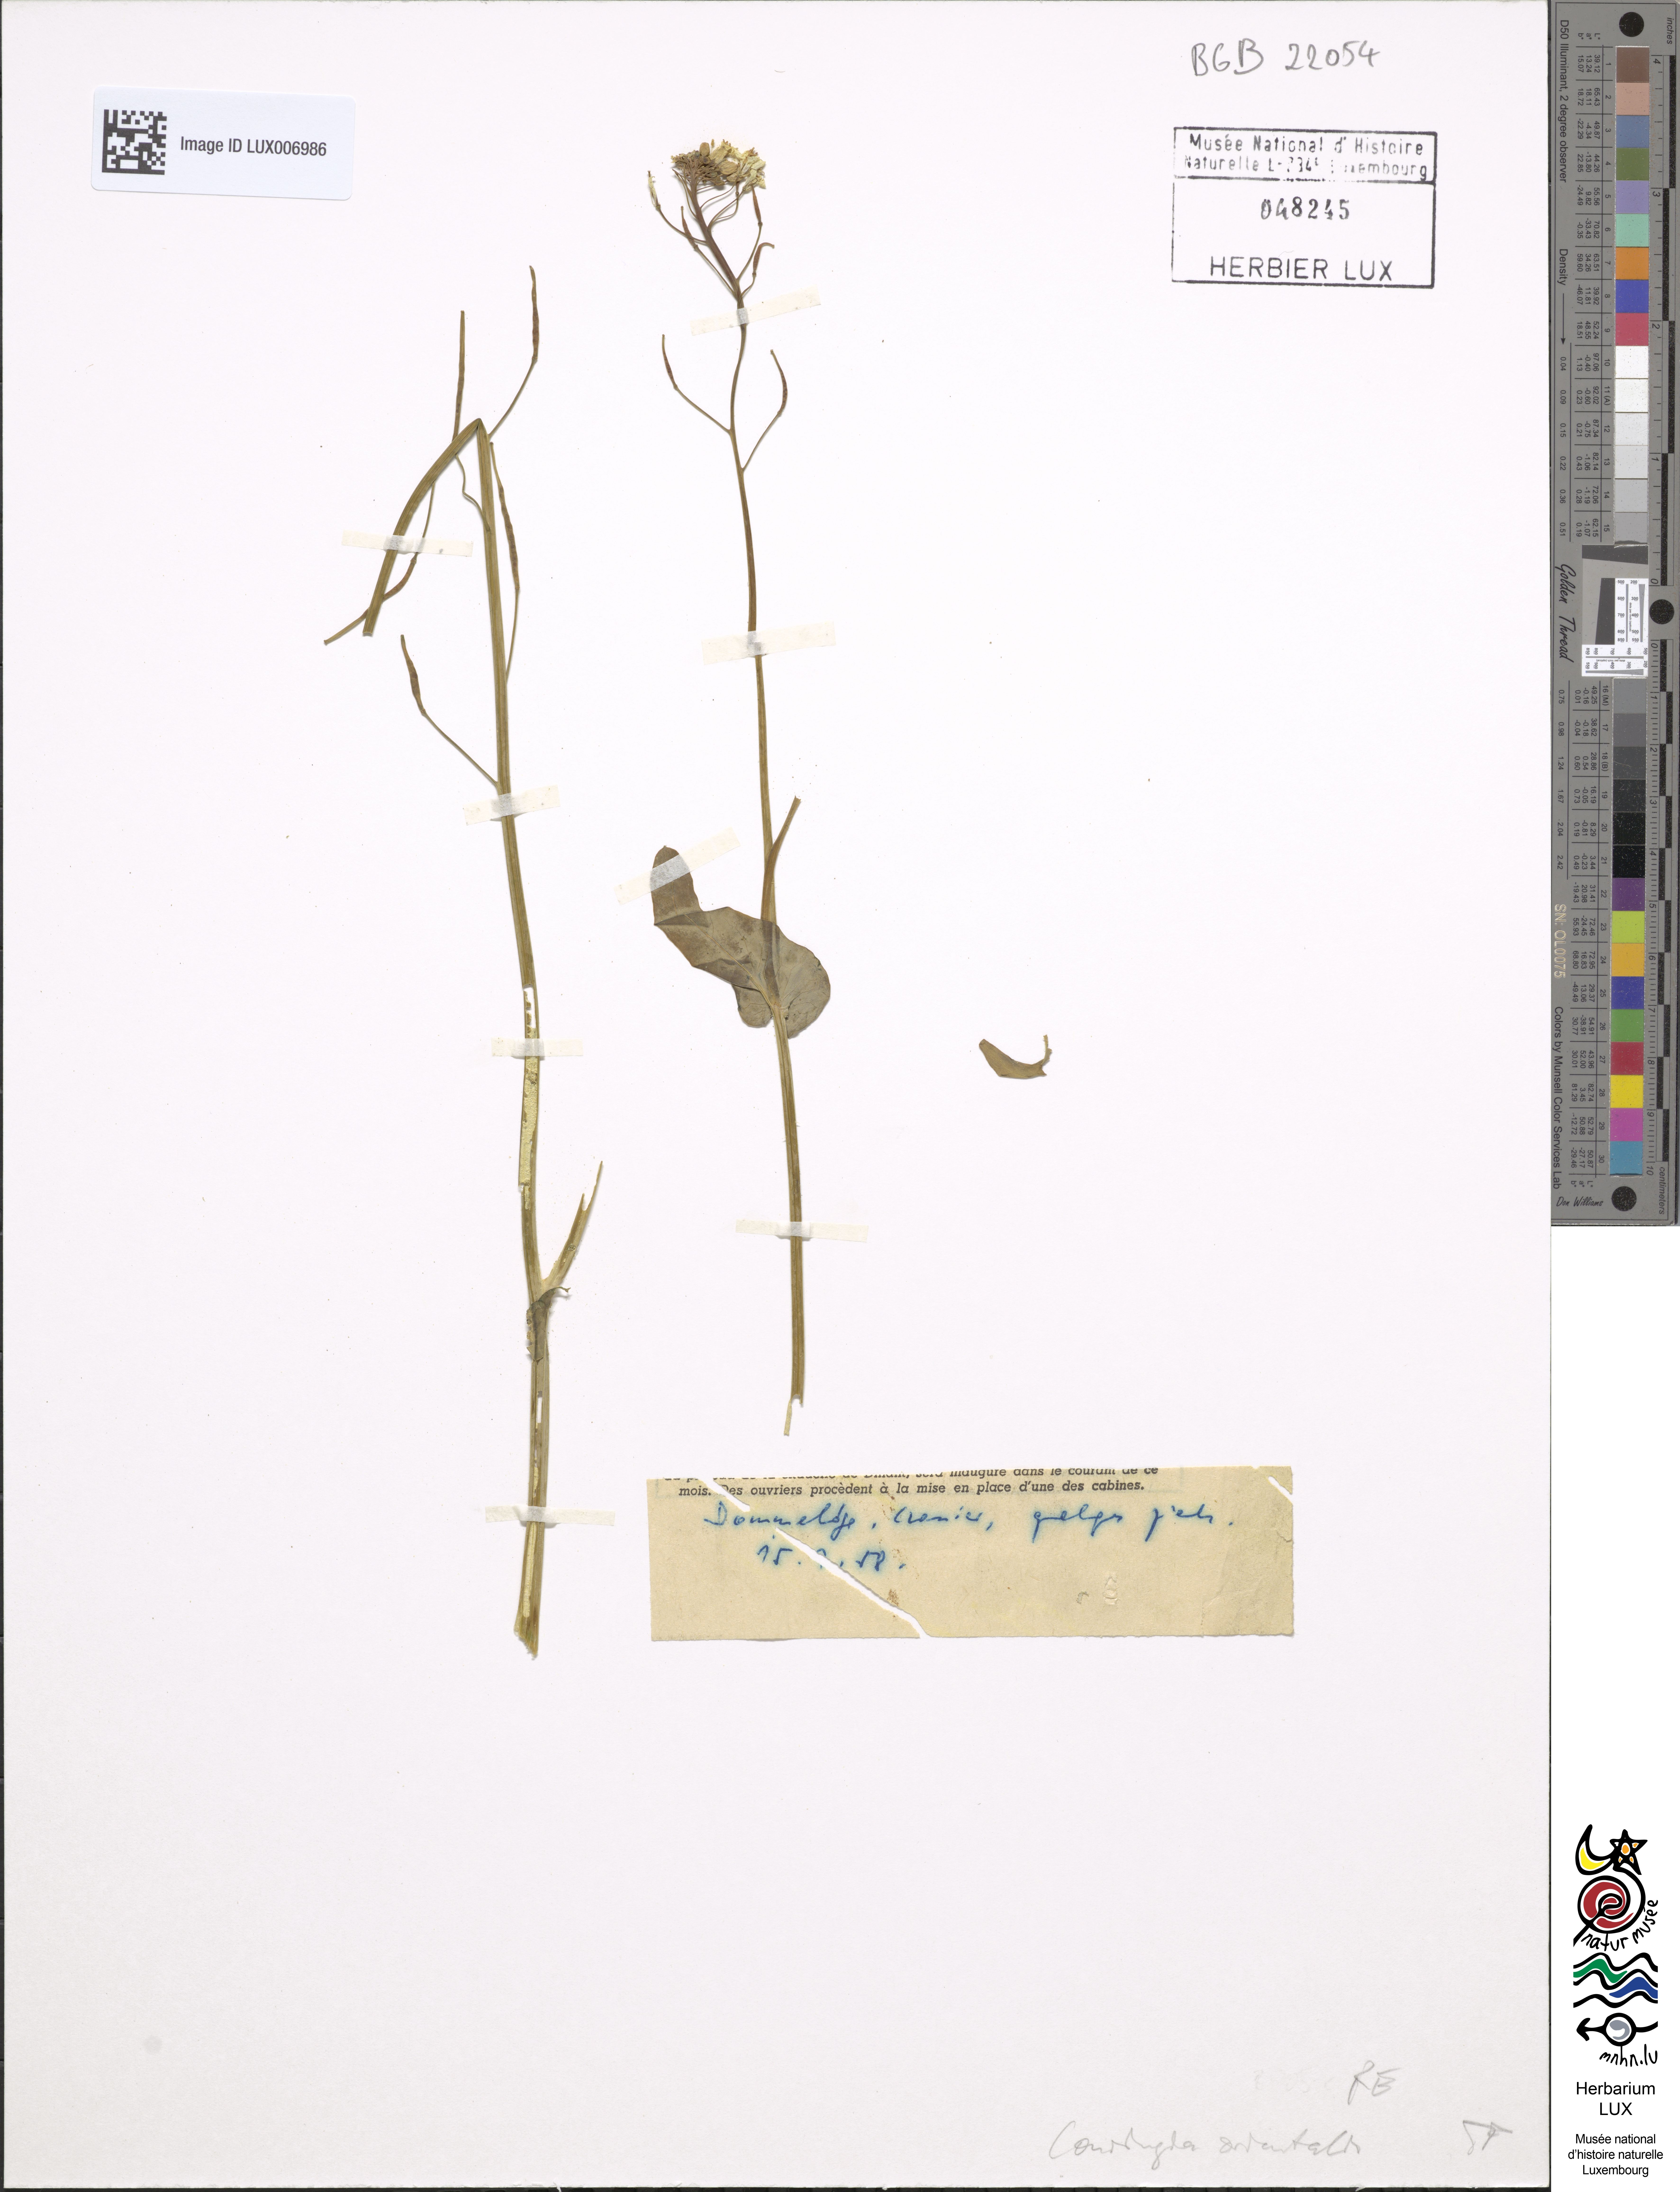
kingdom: Plantae
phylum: Tracheophyta
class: Magnoliopsida
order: Brassicales
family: Brassicaceae
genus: Conringia
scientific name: Conringia orientalis
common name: Hare's ear mustard
